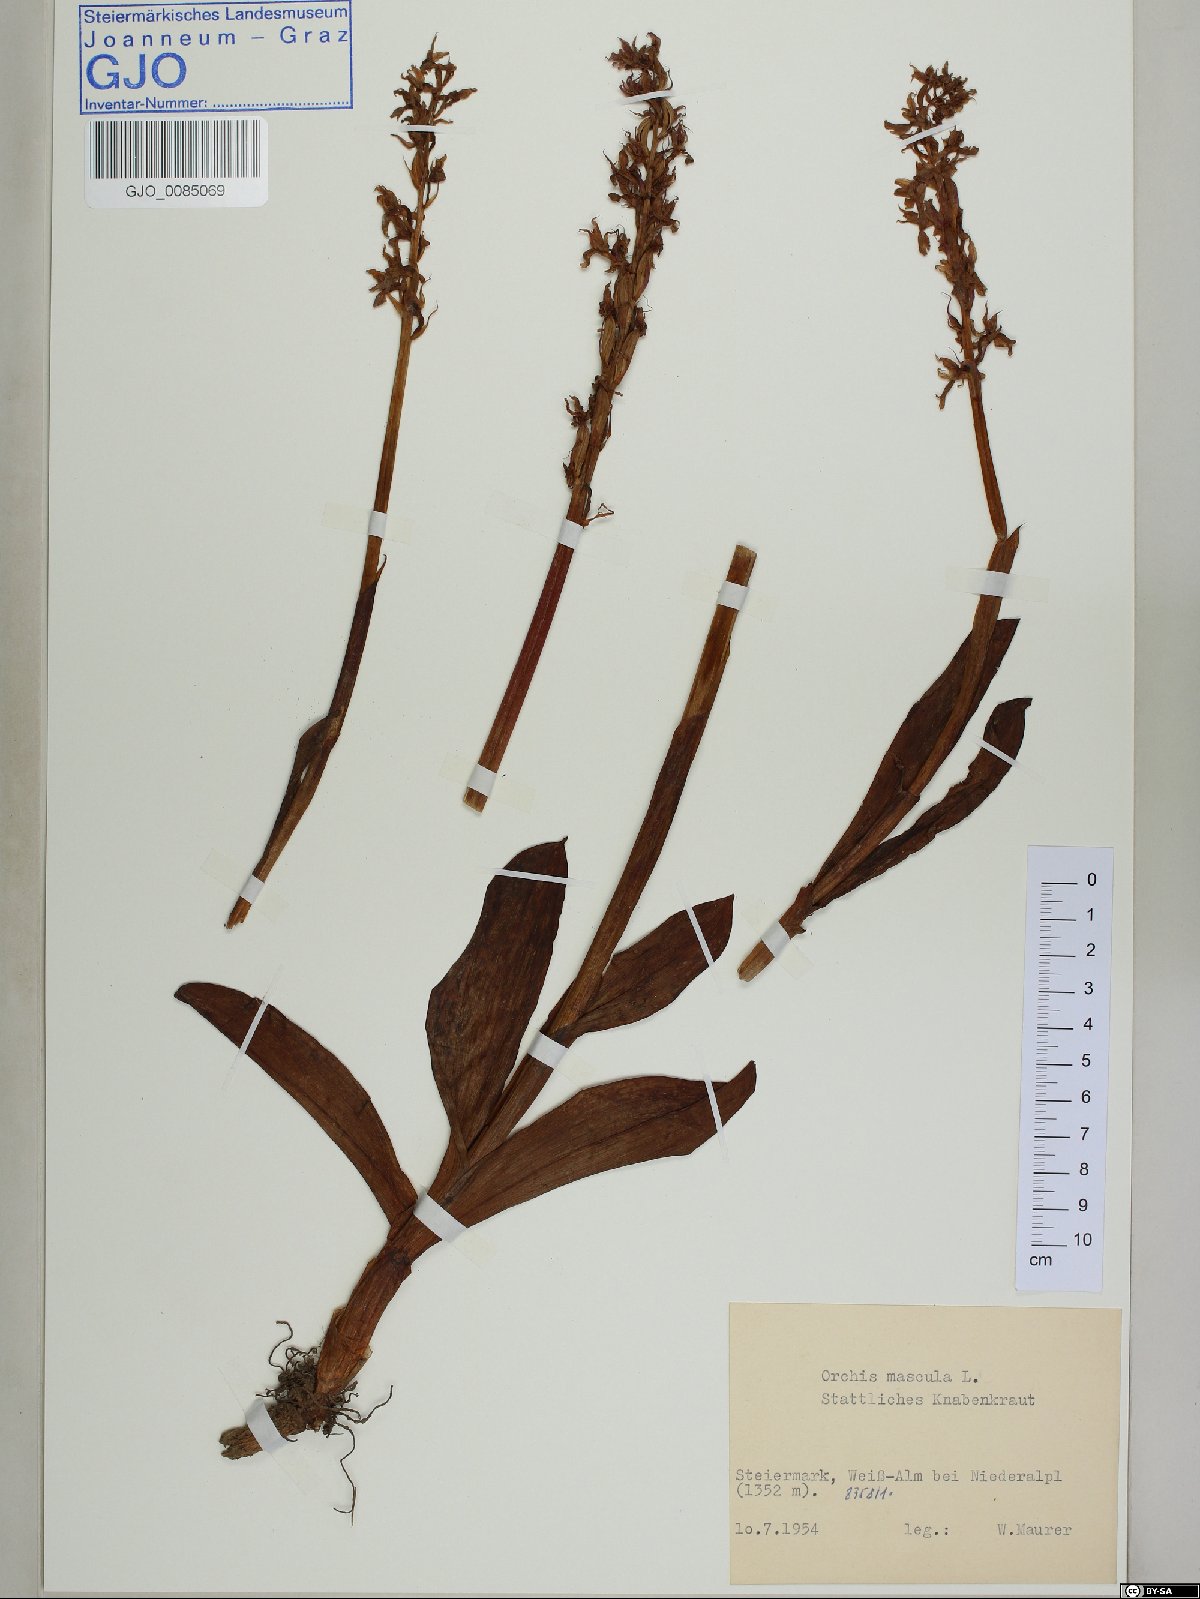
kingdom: Plantae
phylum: Tracheophyta
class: Liliopsida
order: Asparagales
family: Orchidaceae
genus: Orchis
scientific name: Orchis mascula
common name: Early-purple orchid
